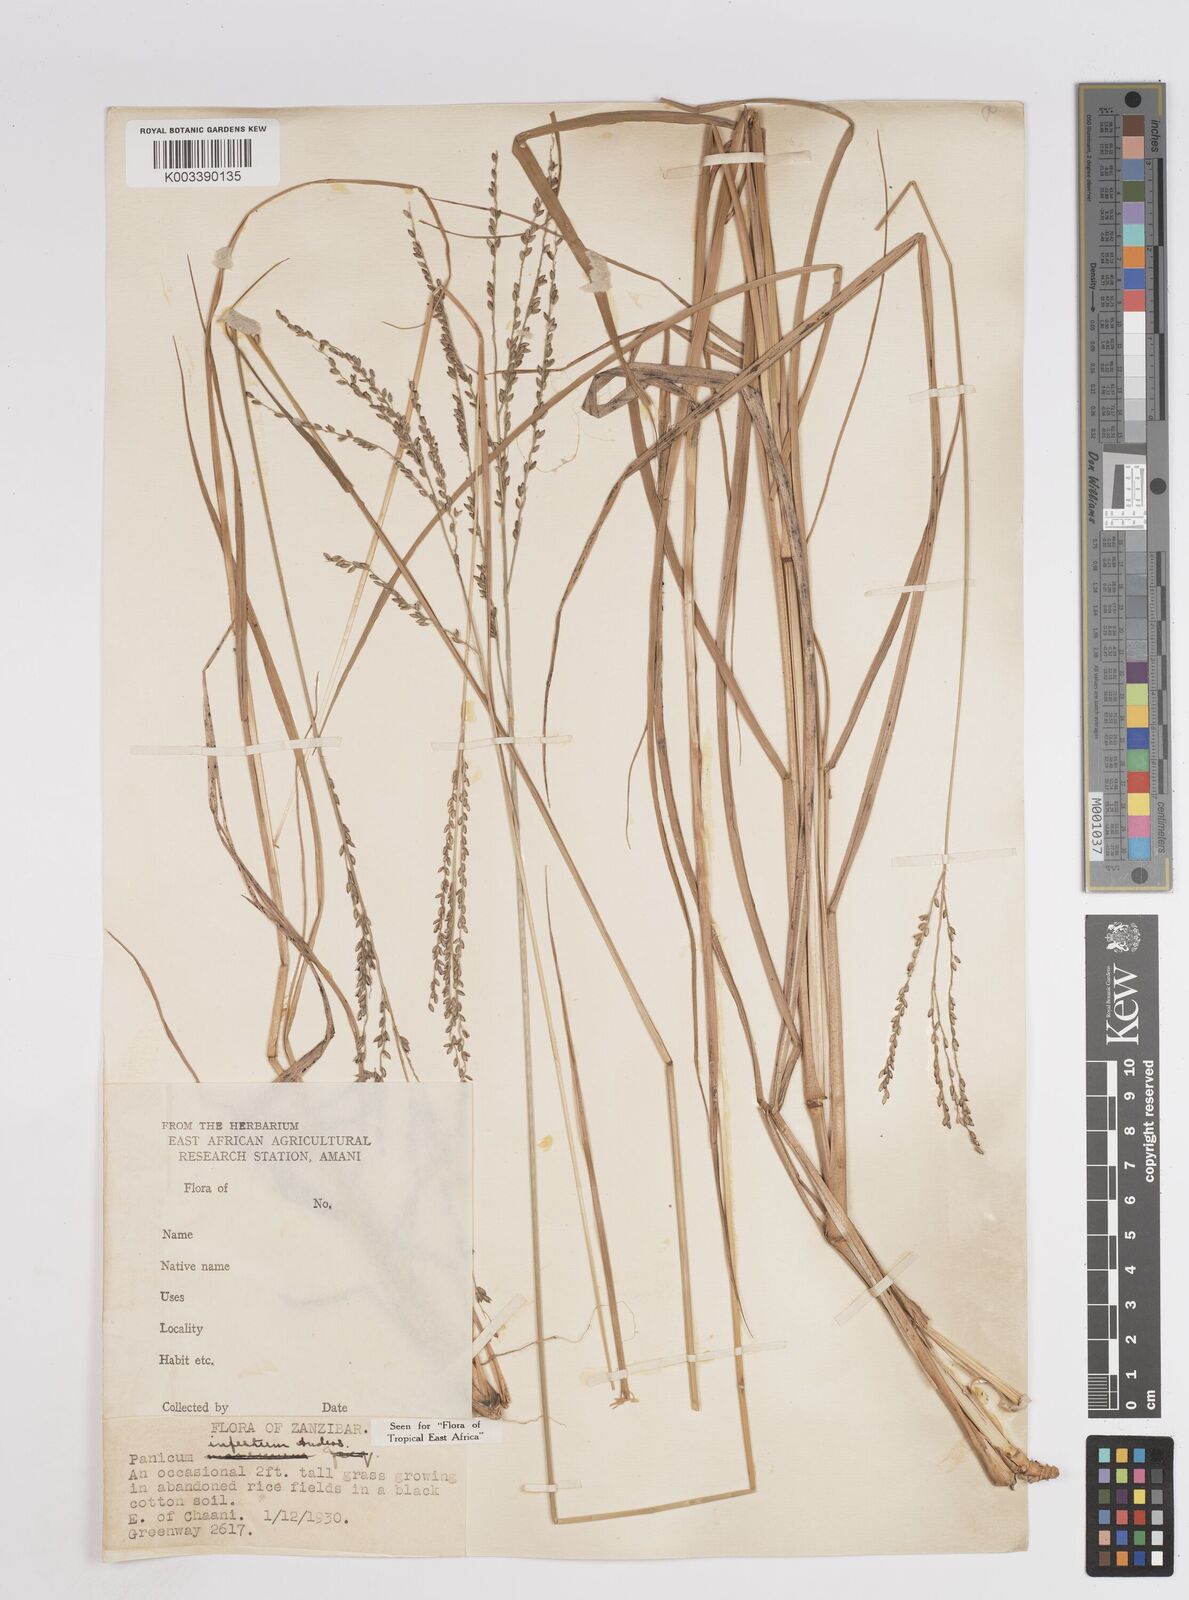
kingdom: Plantae
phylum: Tracheophyta
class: Liliopsida
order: Poales
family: Poaceae
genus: Megathyrsus
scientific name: Megathyrsus infestus
